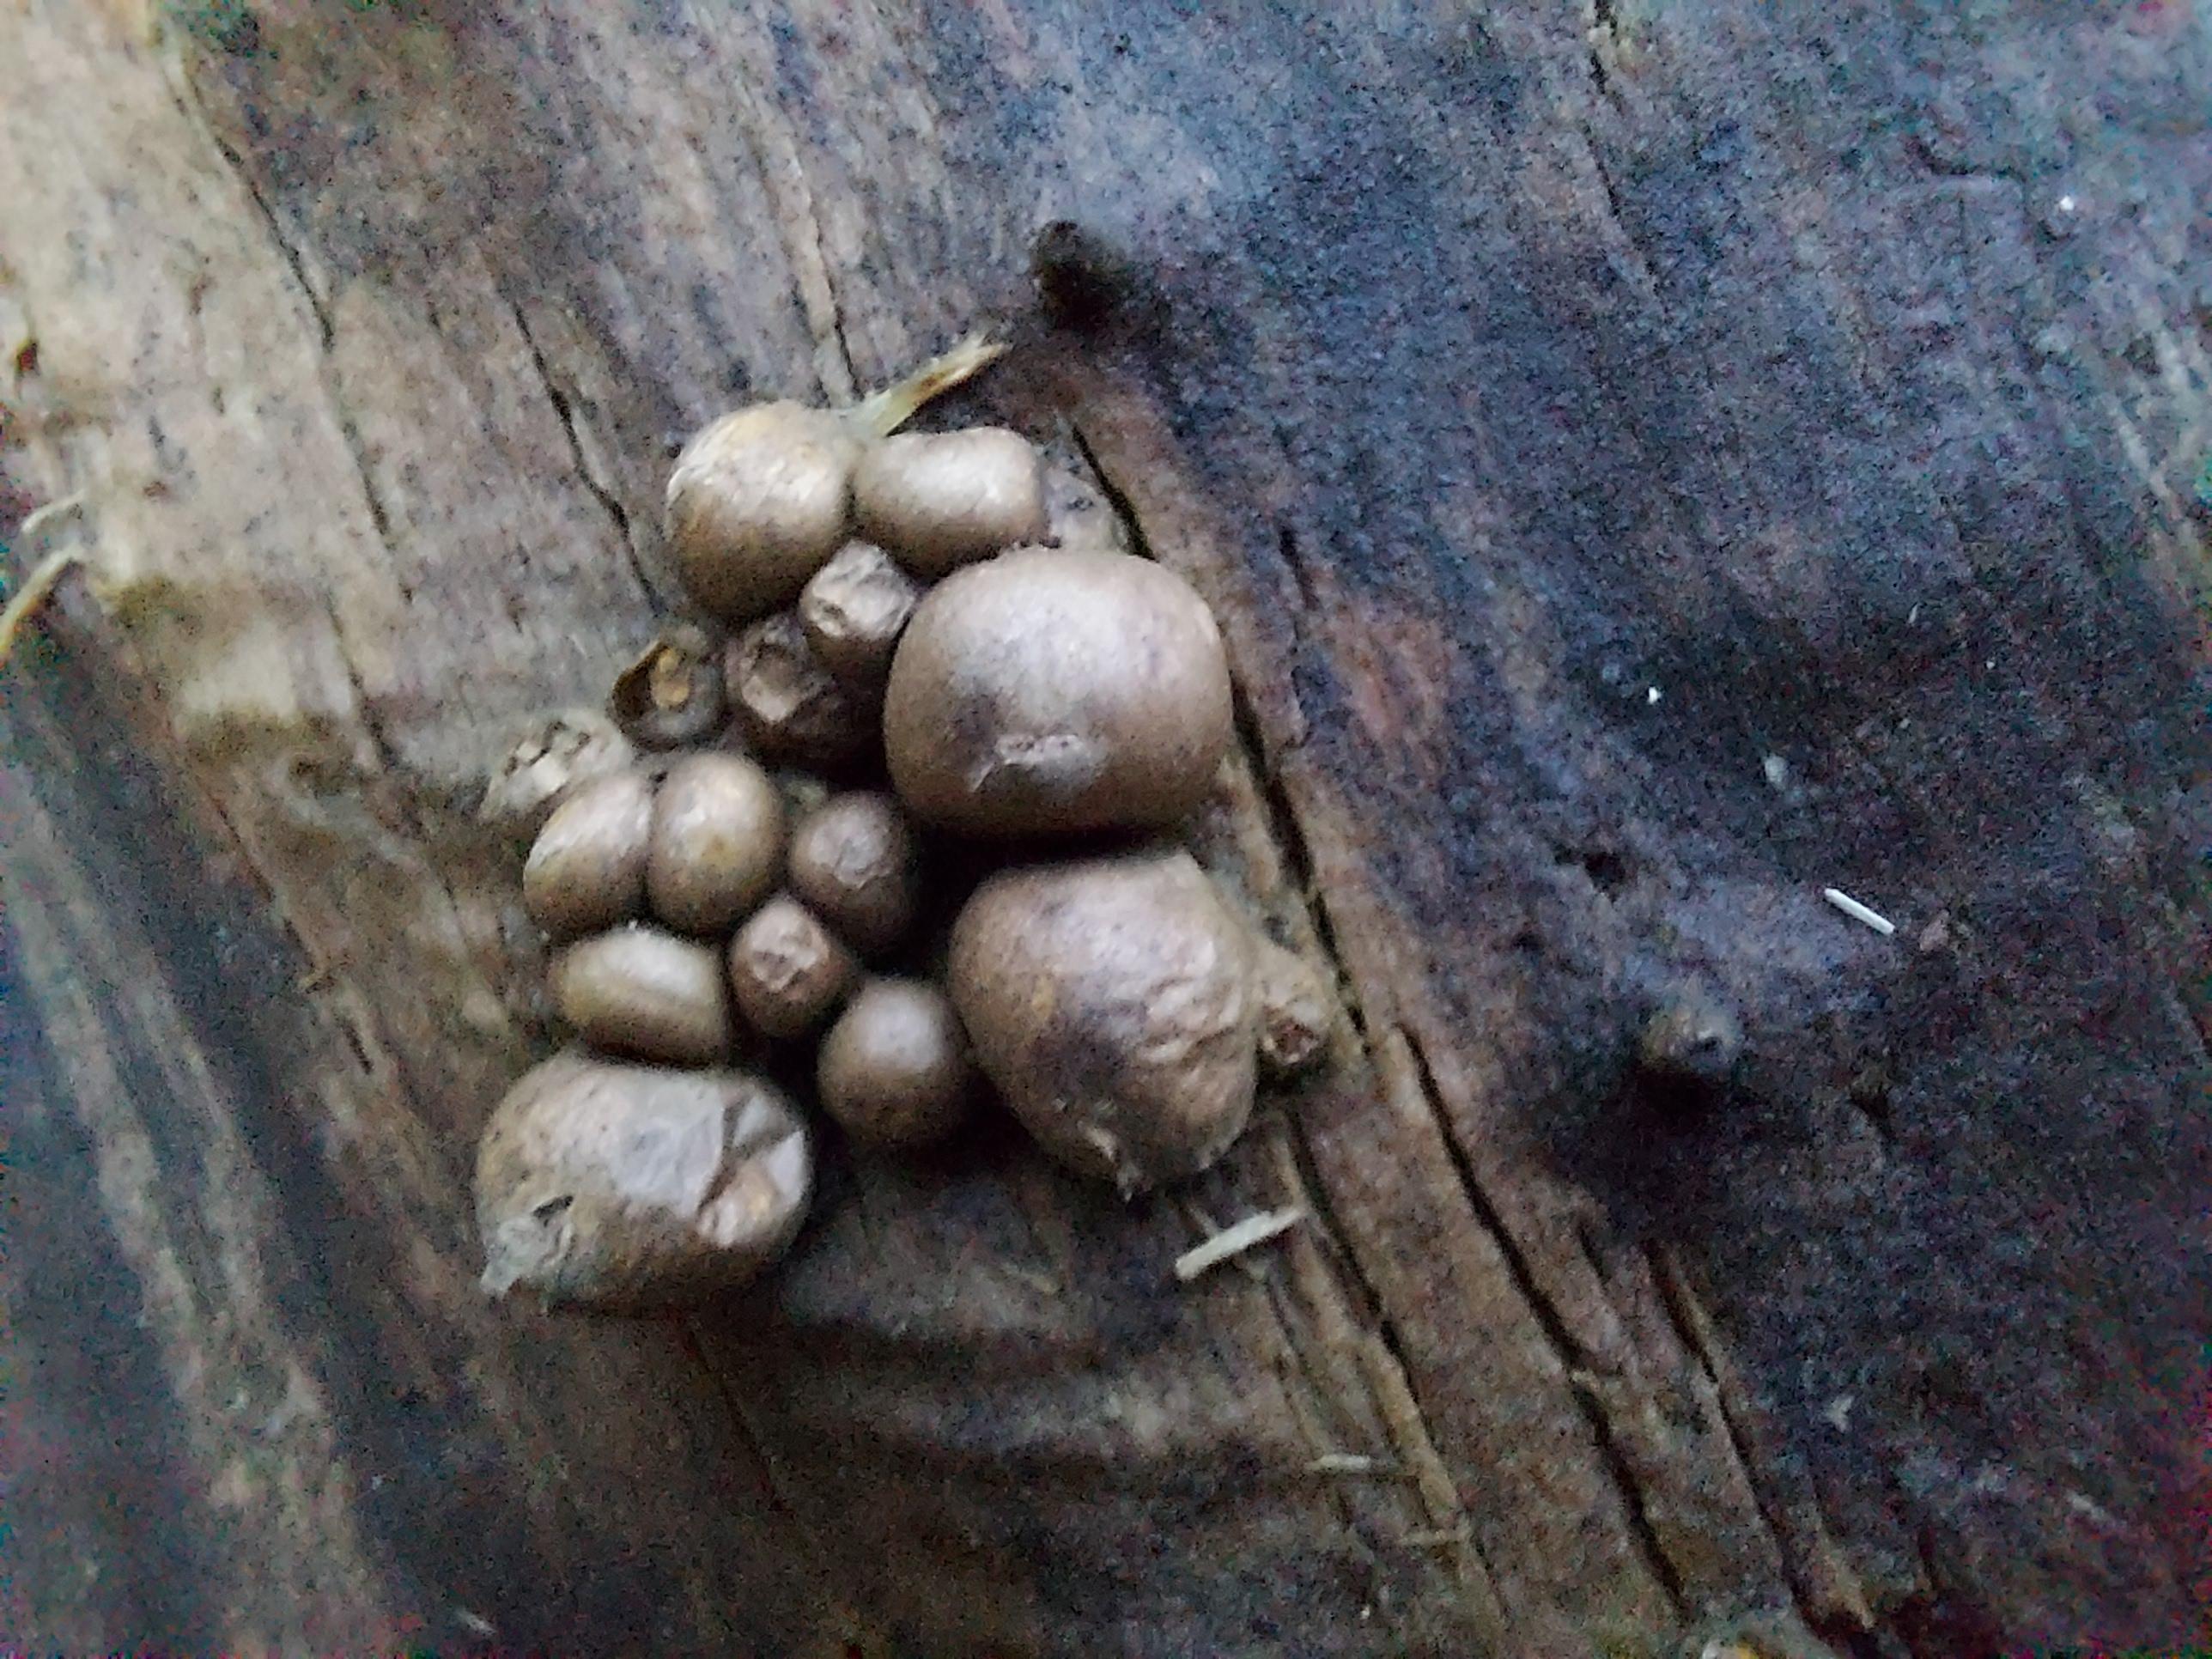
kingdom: Protozoa
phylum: Mycetozoa
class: Myxomycetes
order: Cribrariales
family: Tubiferaceae
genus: Lycogala
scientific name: Lycogala epidendrum
